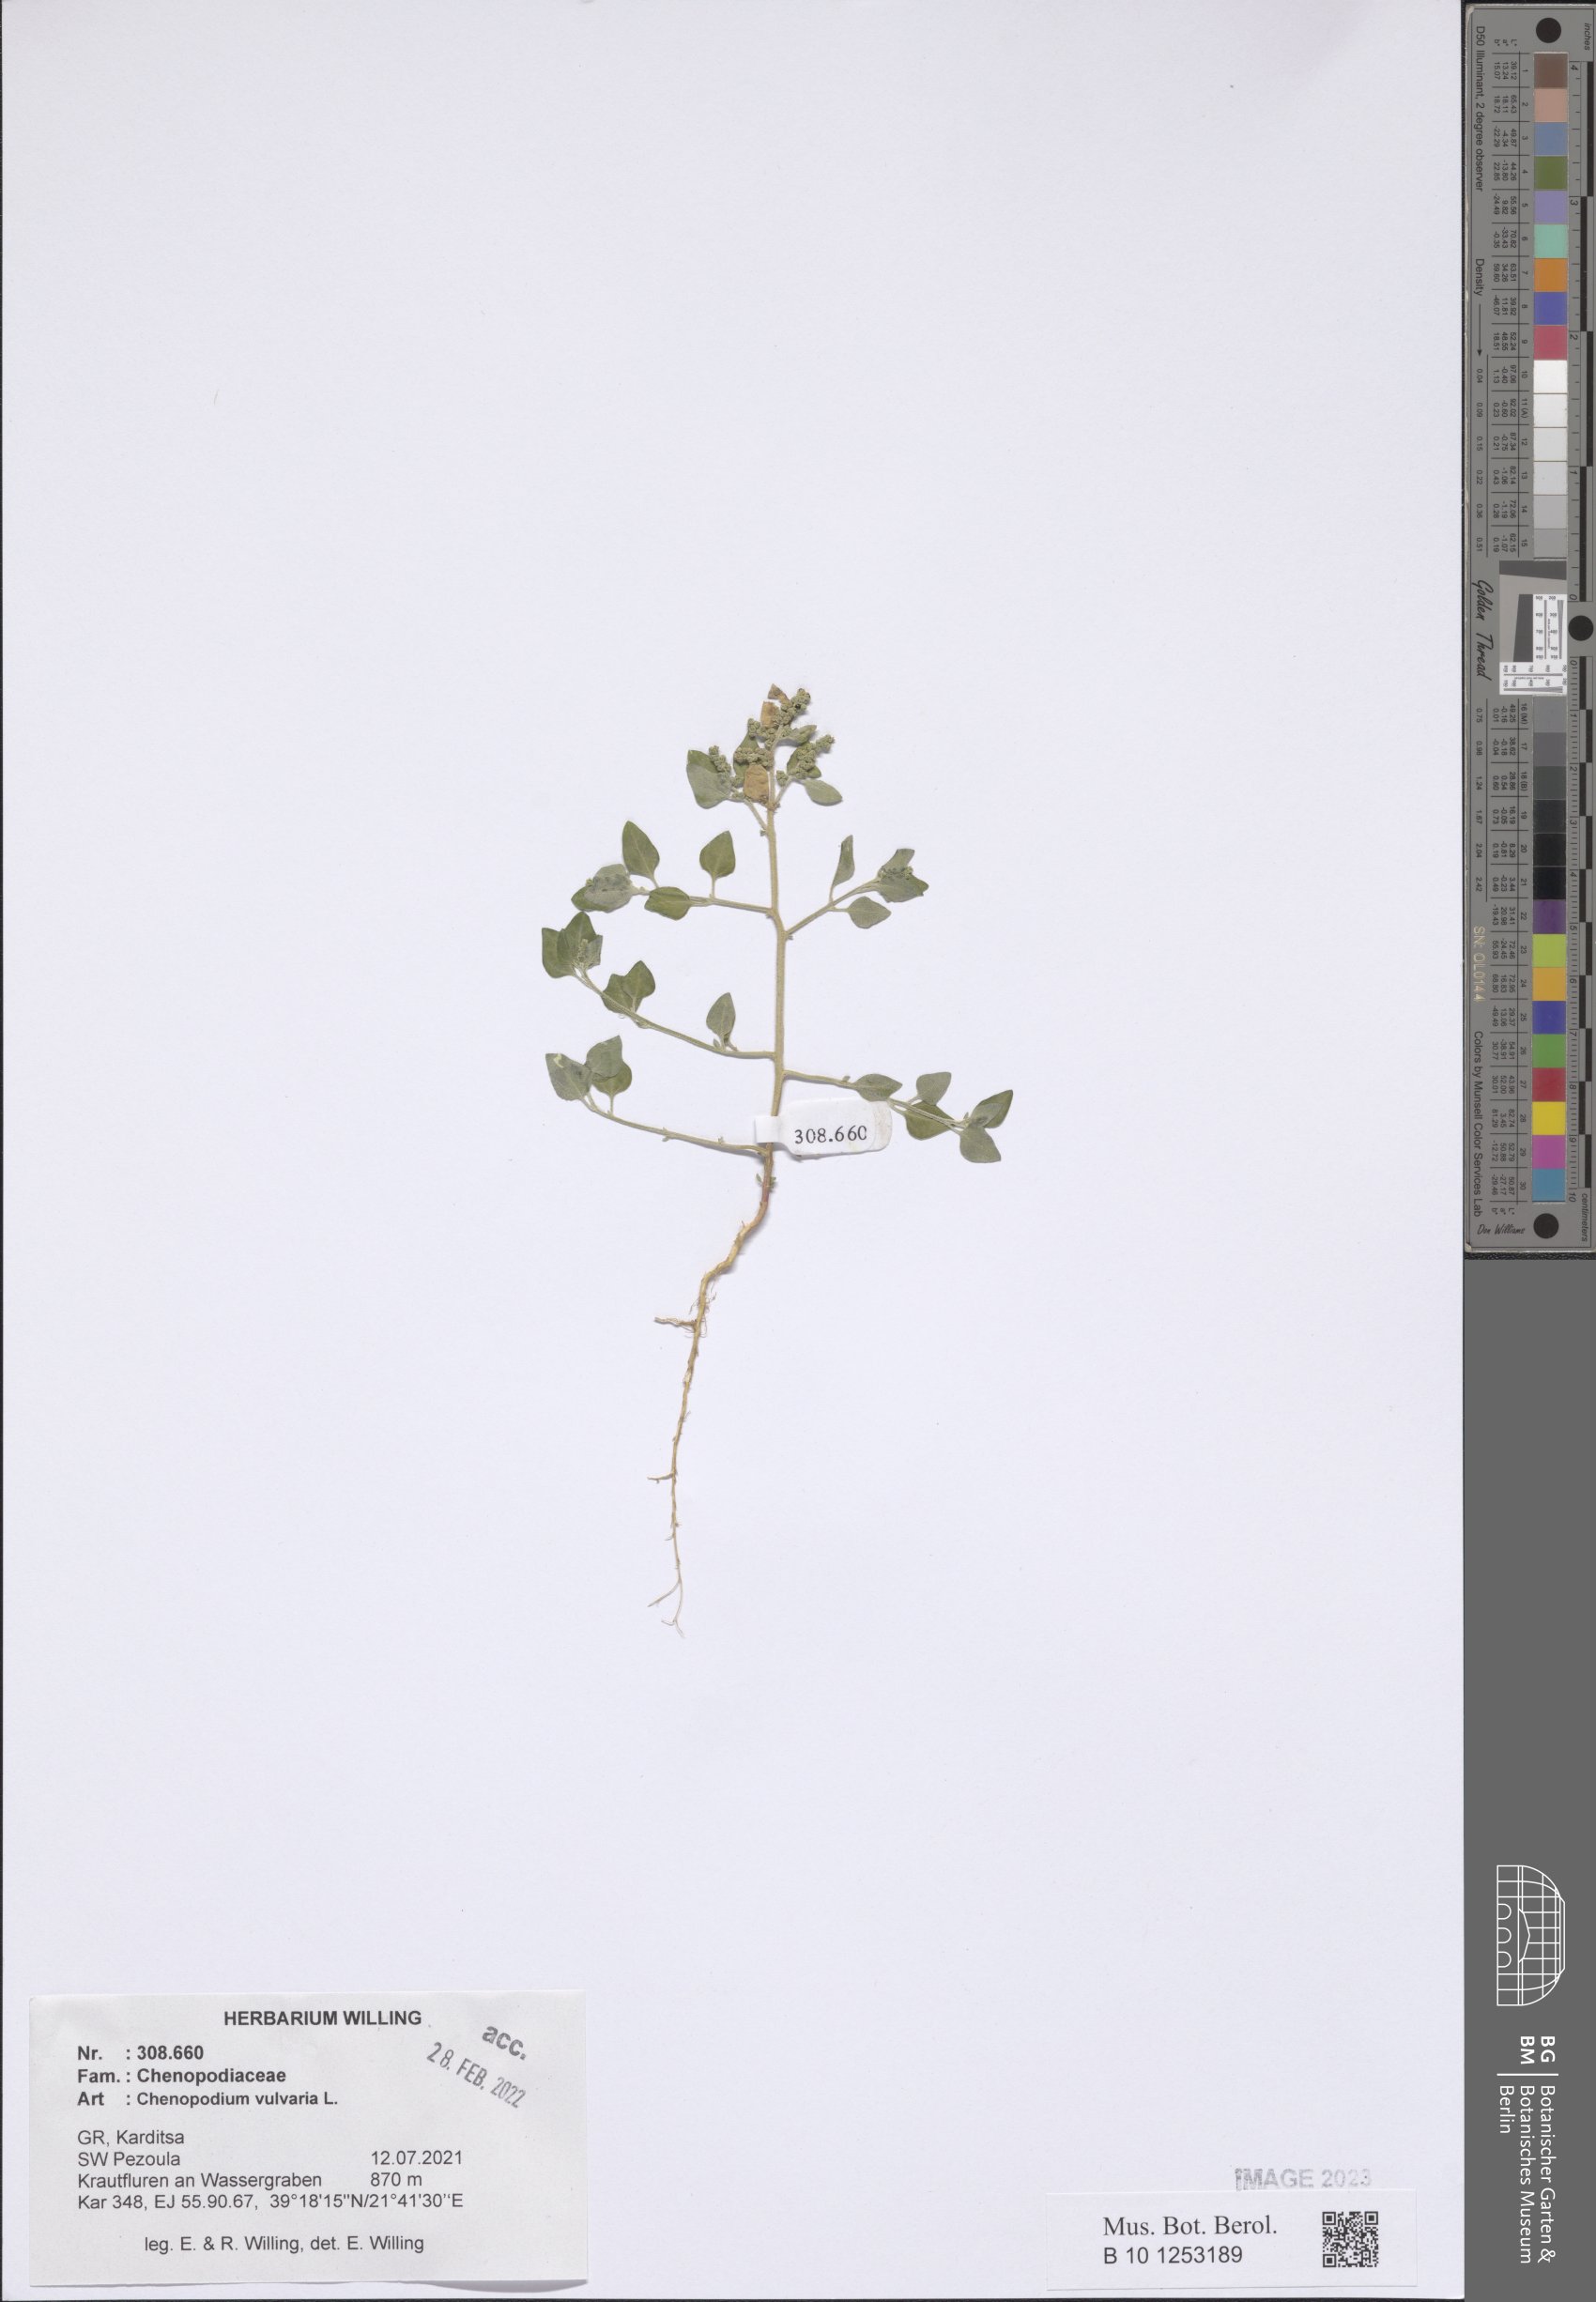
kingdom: Plantae
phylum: Tracheophyta
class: Magnoliopsida
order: Caryophyllales
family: Amaranthaceae
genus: Chenopodium
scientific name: Chenopodium vulvaria
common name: Stinking goosefoot
